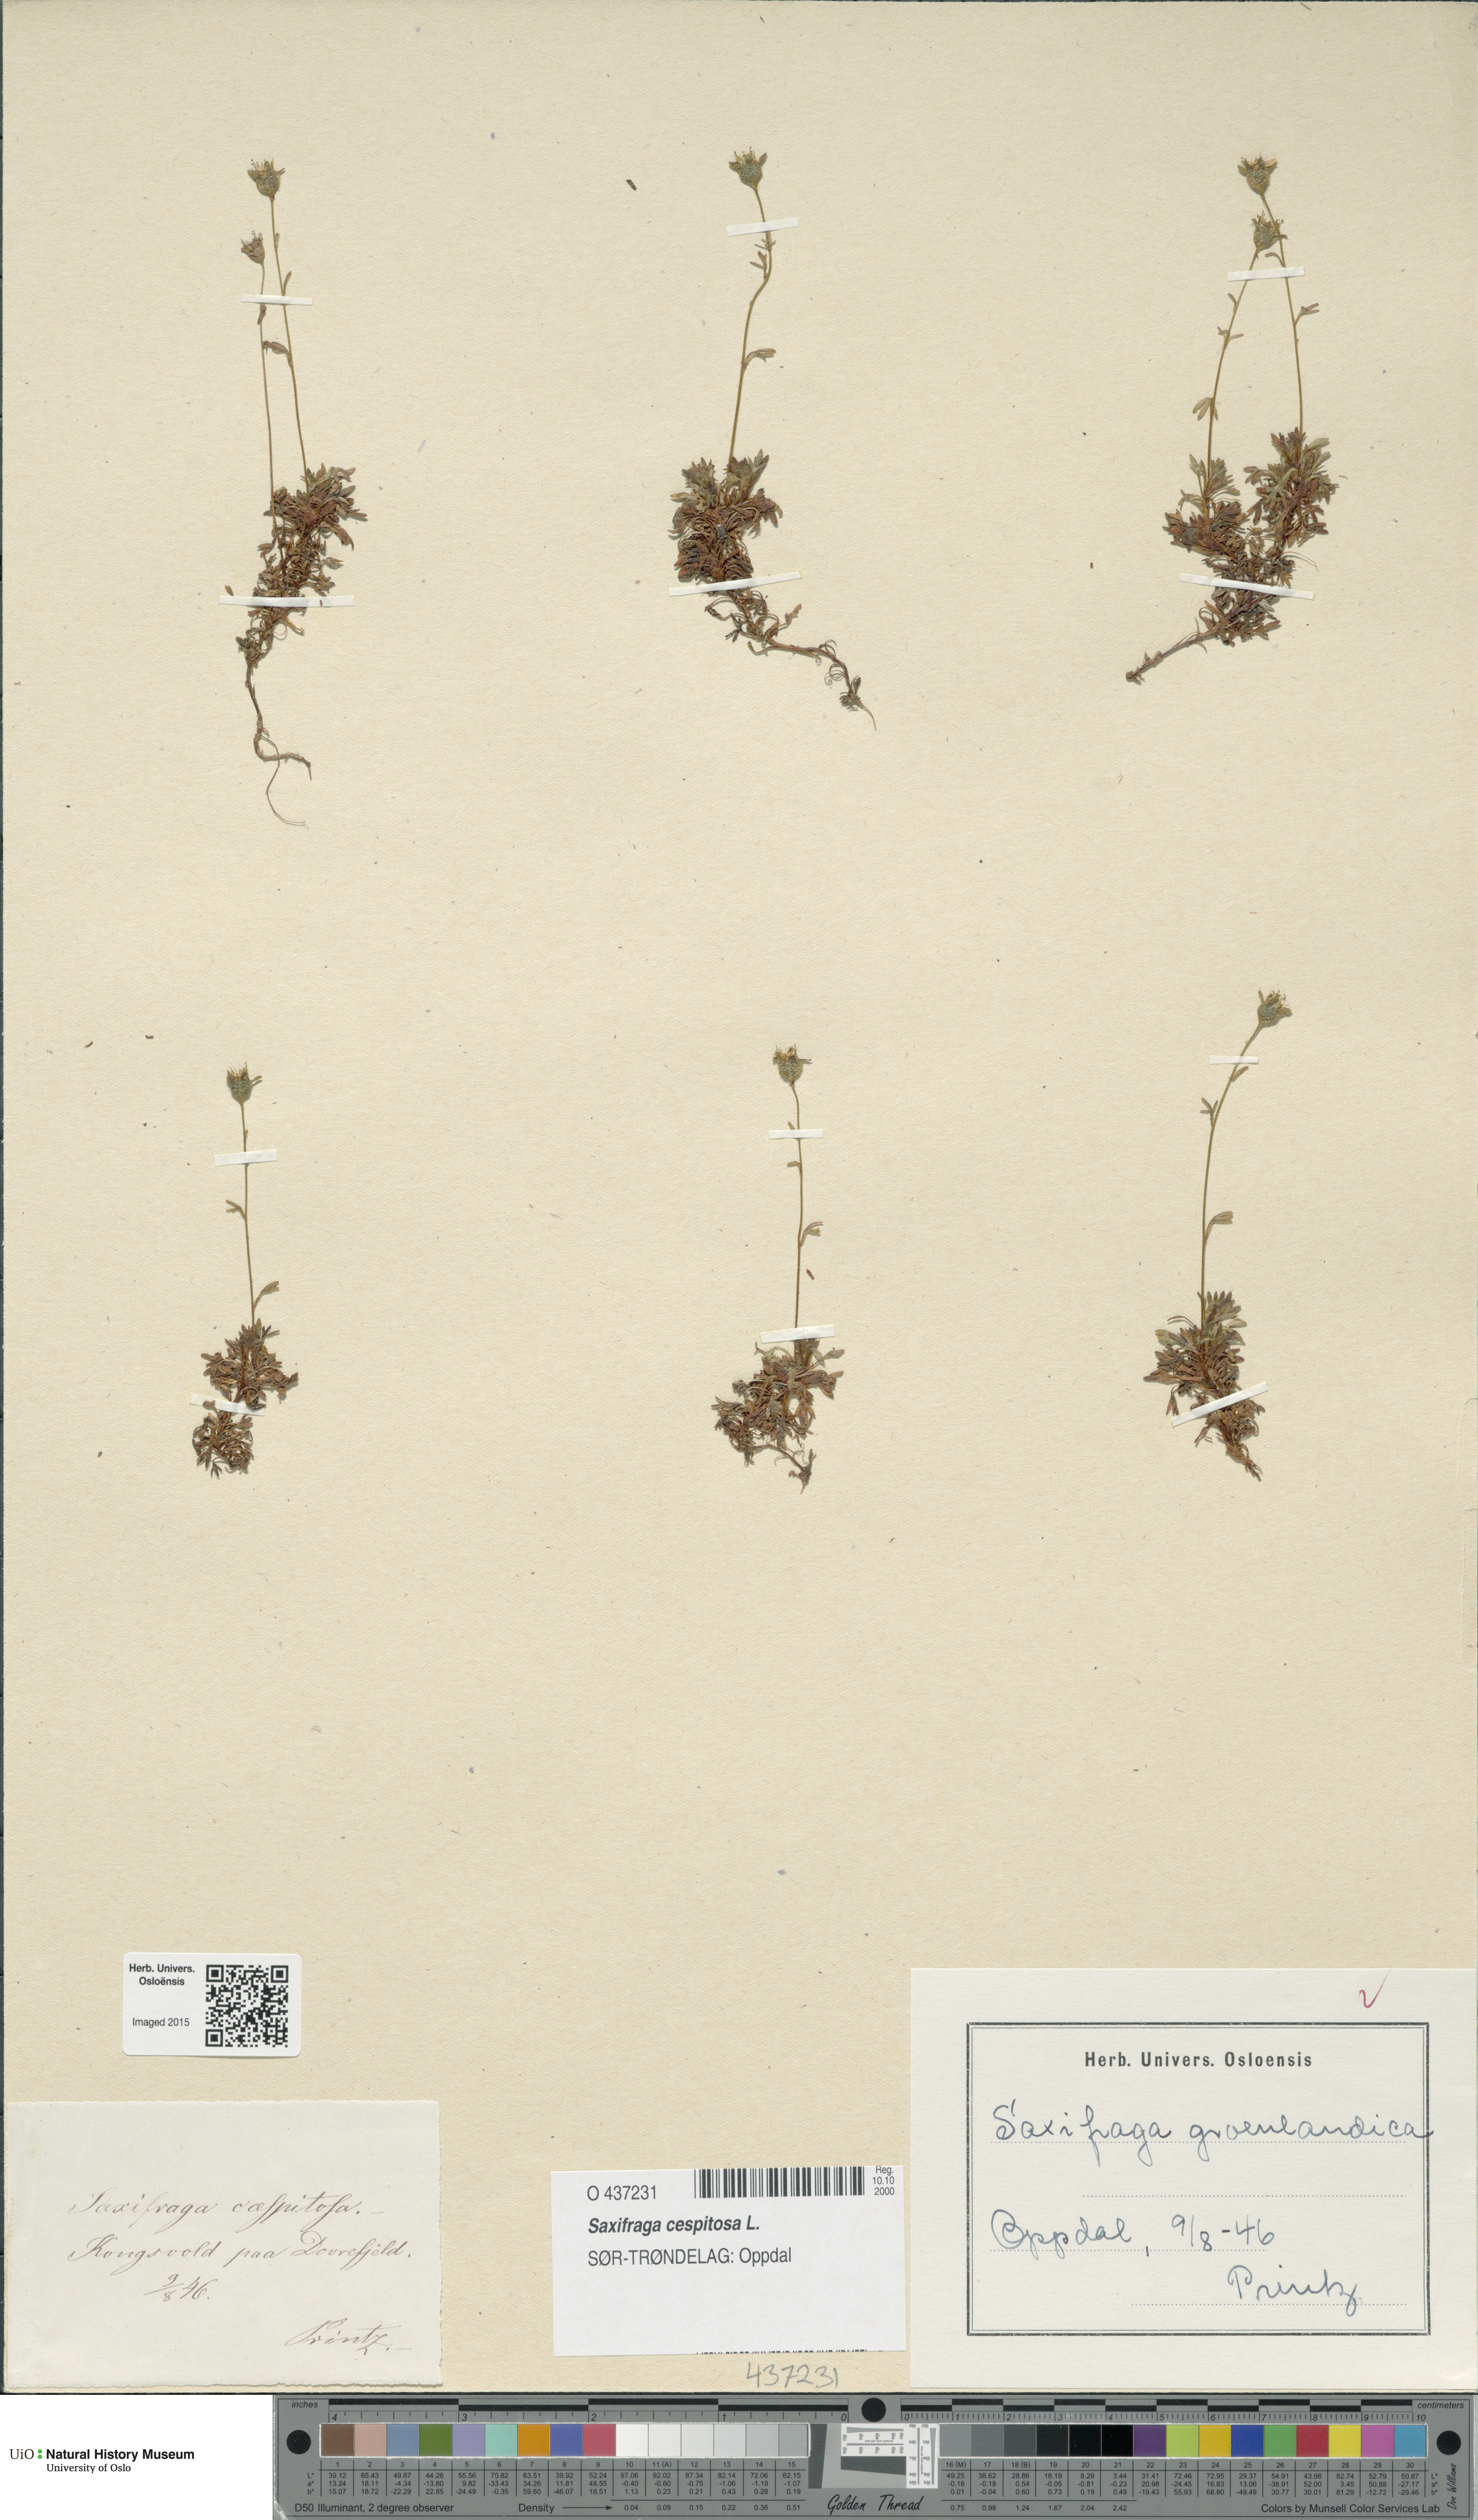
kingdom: Plantae
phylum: Tracheophyta
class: Magnoliopsida
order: Saxifragales
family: Saxifragaceae
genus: Saxifraga
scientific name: Saxifraga cespitosa
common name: Tufted saxifrage
